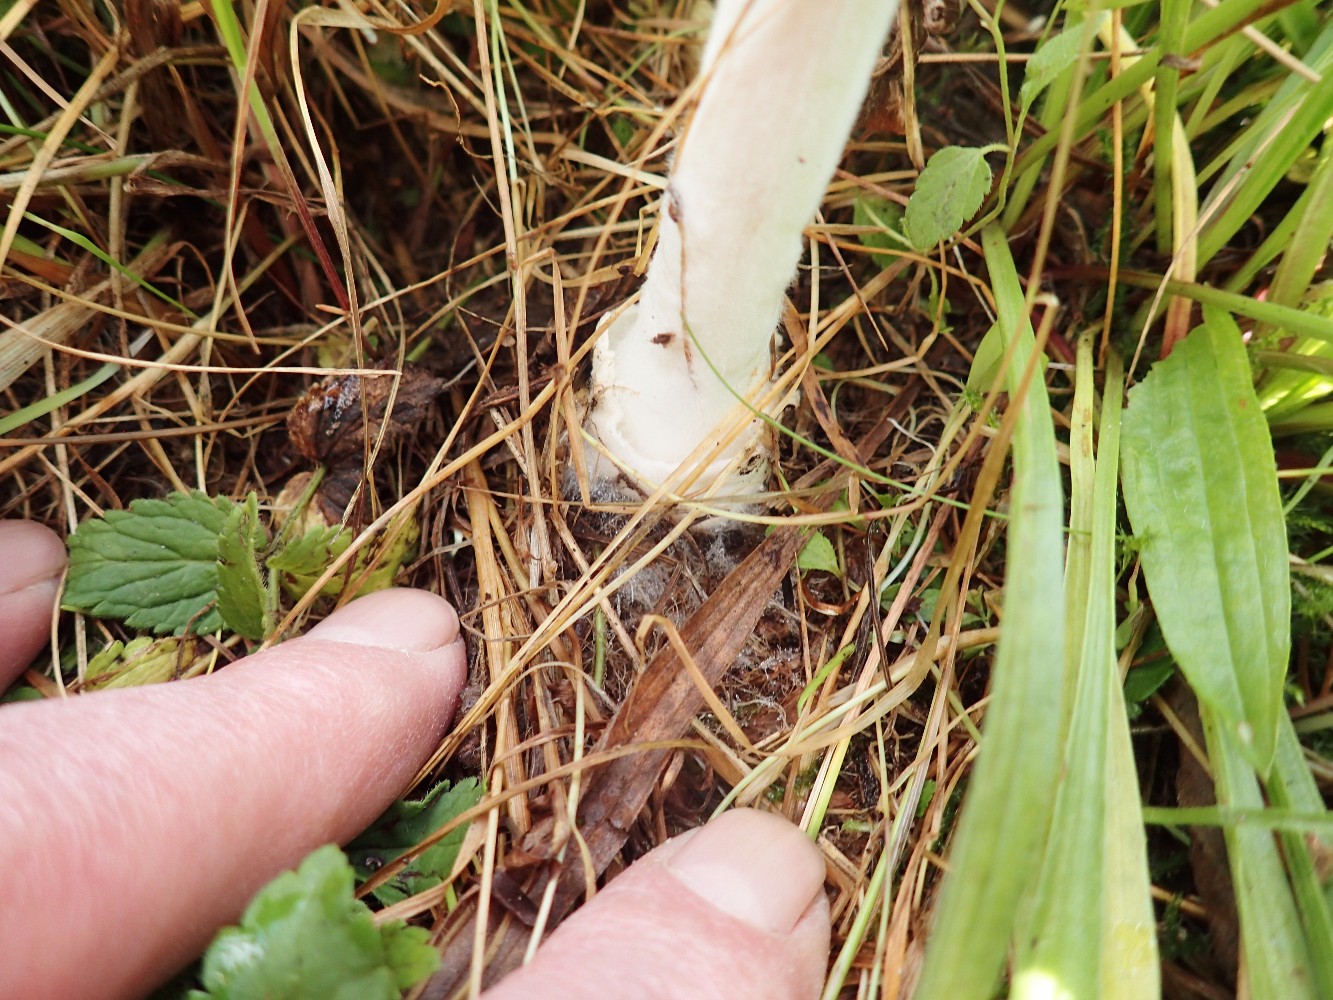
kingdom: Fungi
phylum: Basidiomycota
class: Agaricomycetes
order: Agaricales
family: Pluteaceae
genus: Volvopluteus
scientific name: Volvopluteus gloiocephalus
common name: høj posesvamp
